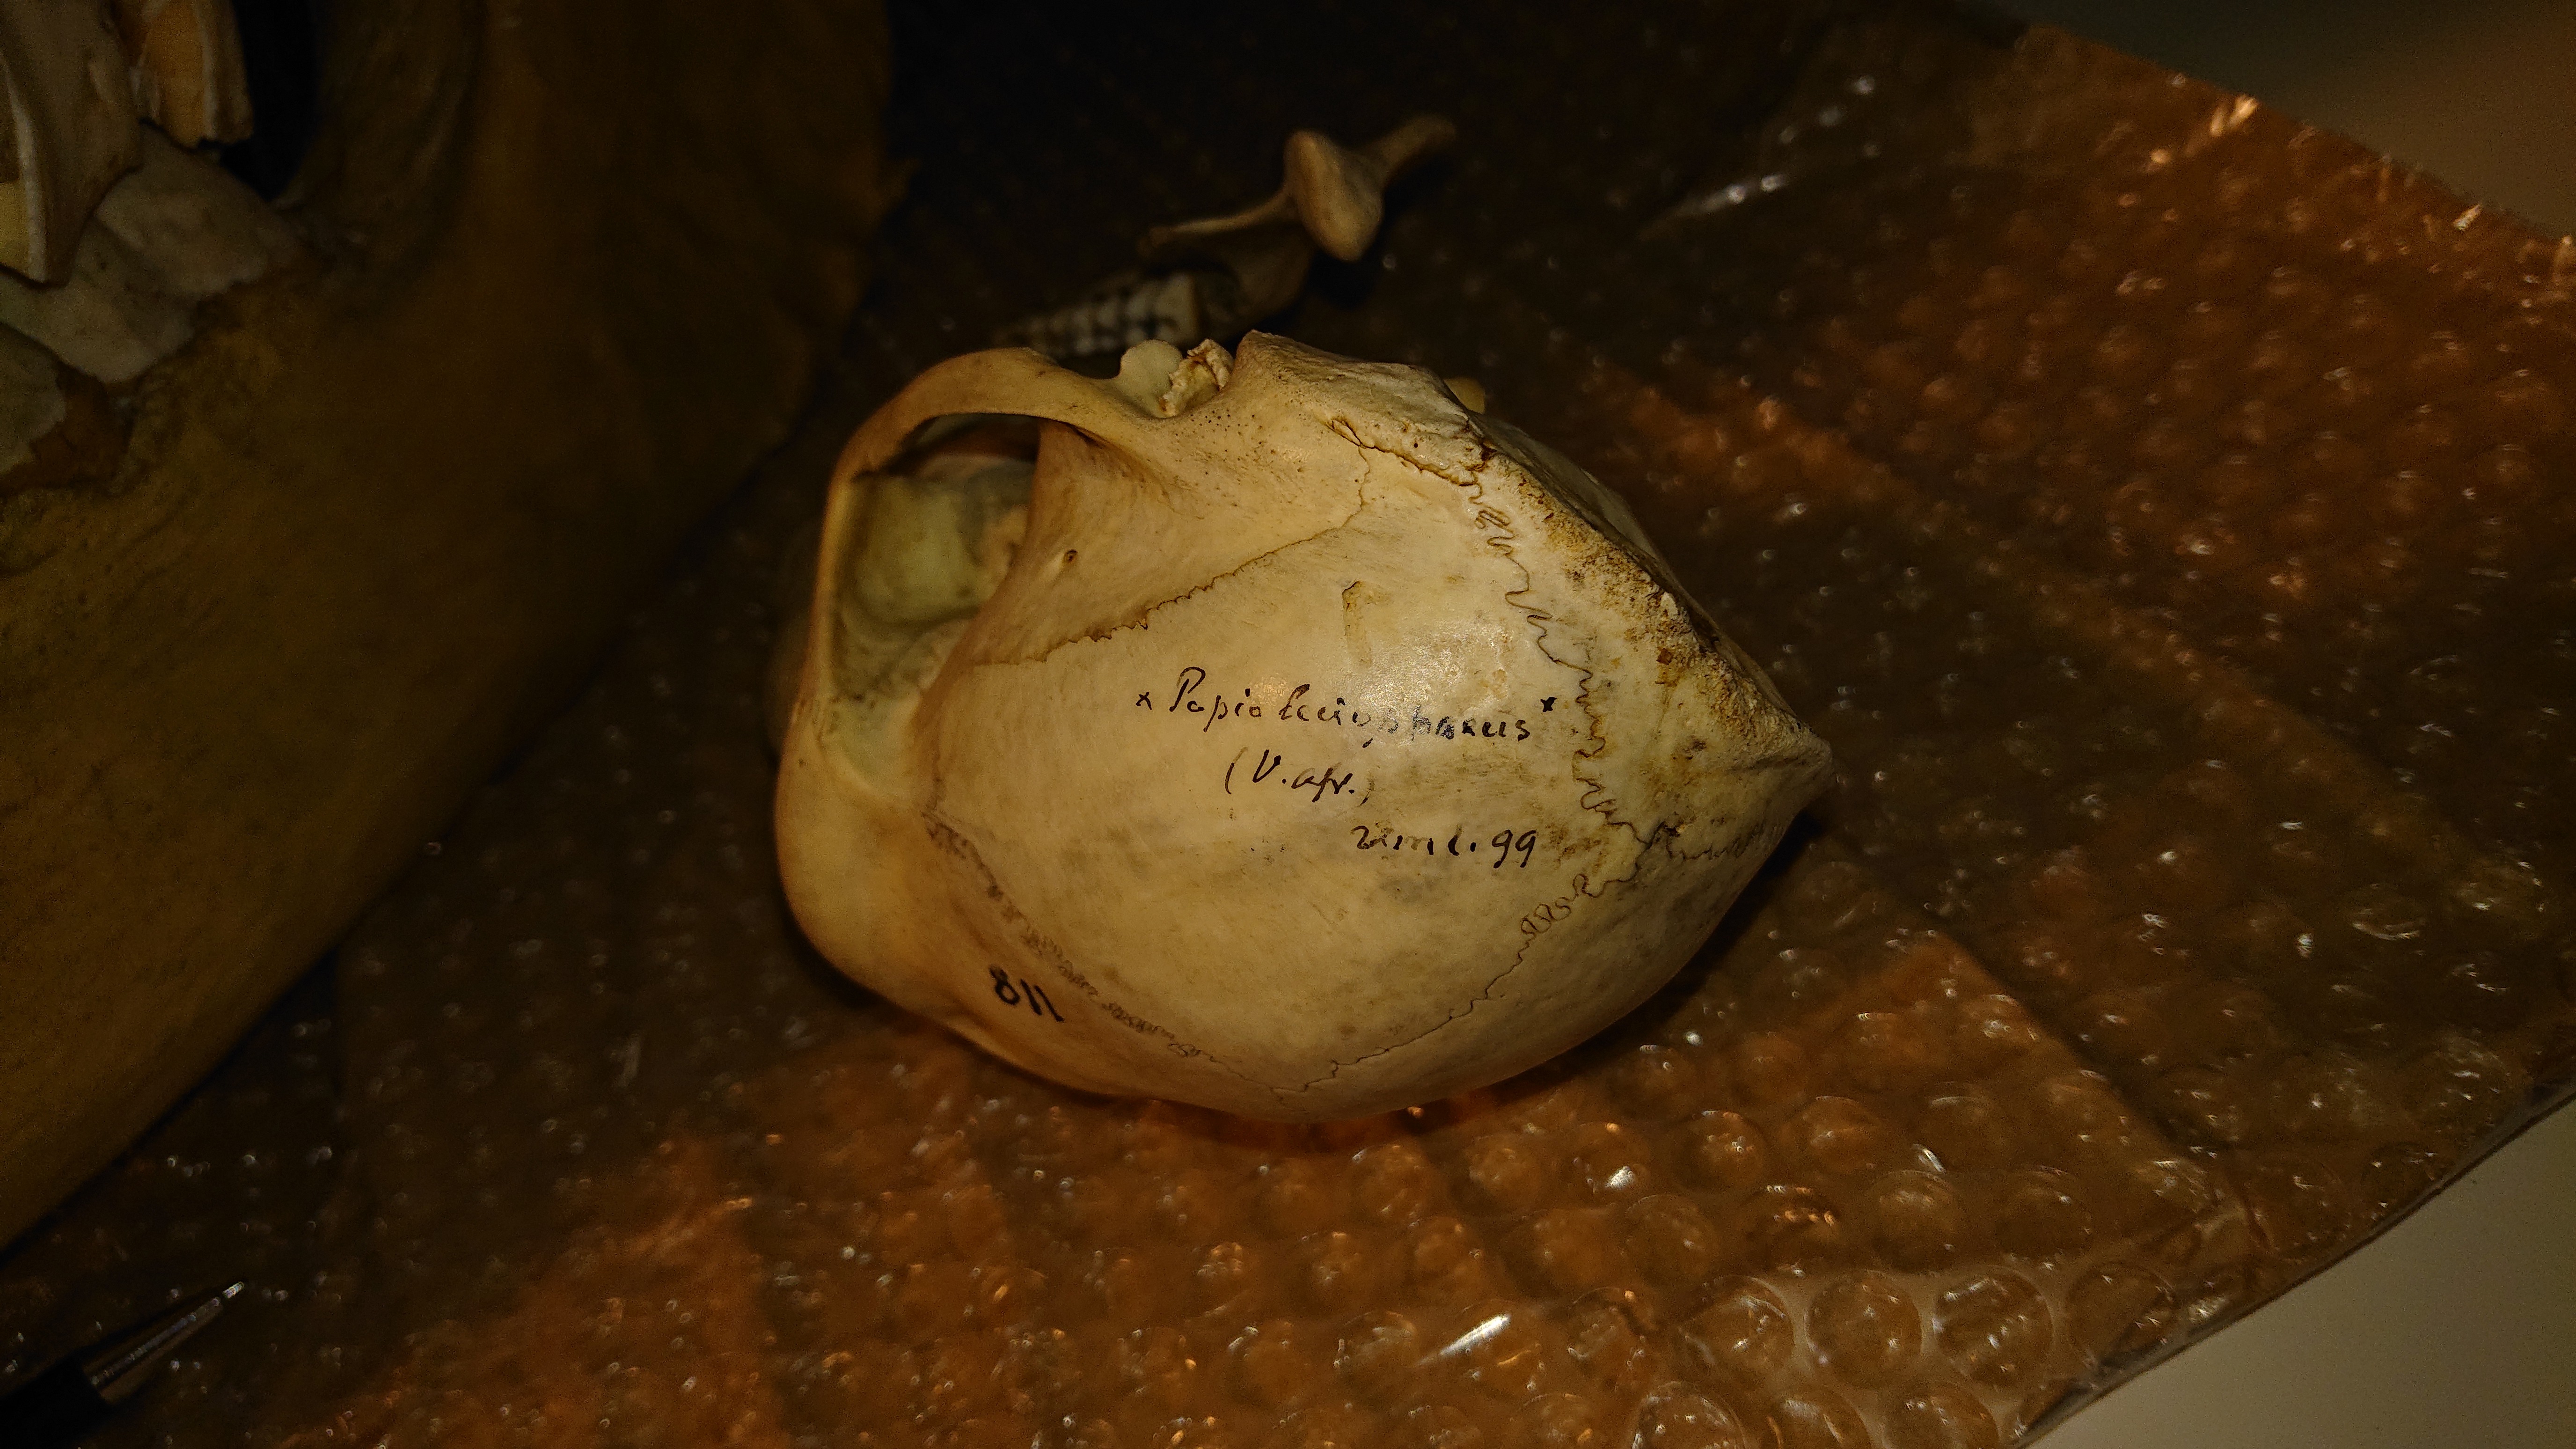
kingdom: Animalia
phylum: Chordata
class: Mammalia
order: Primates
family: Cercopithecidae
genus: Mandrillus
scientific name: Mandrillus leucophaeus
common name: Drill
